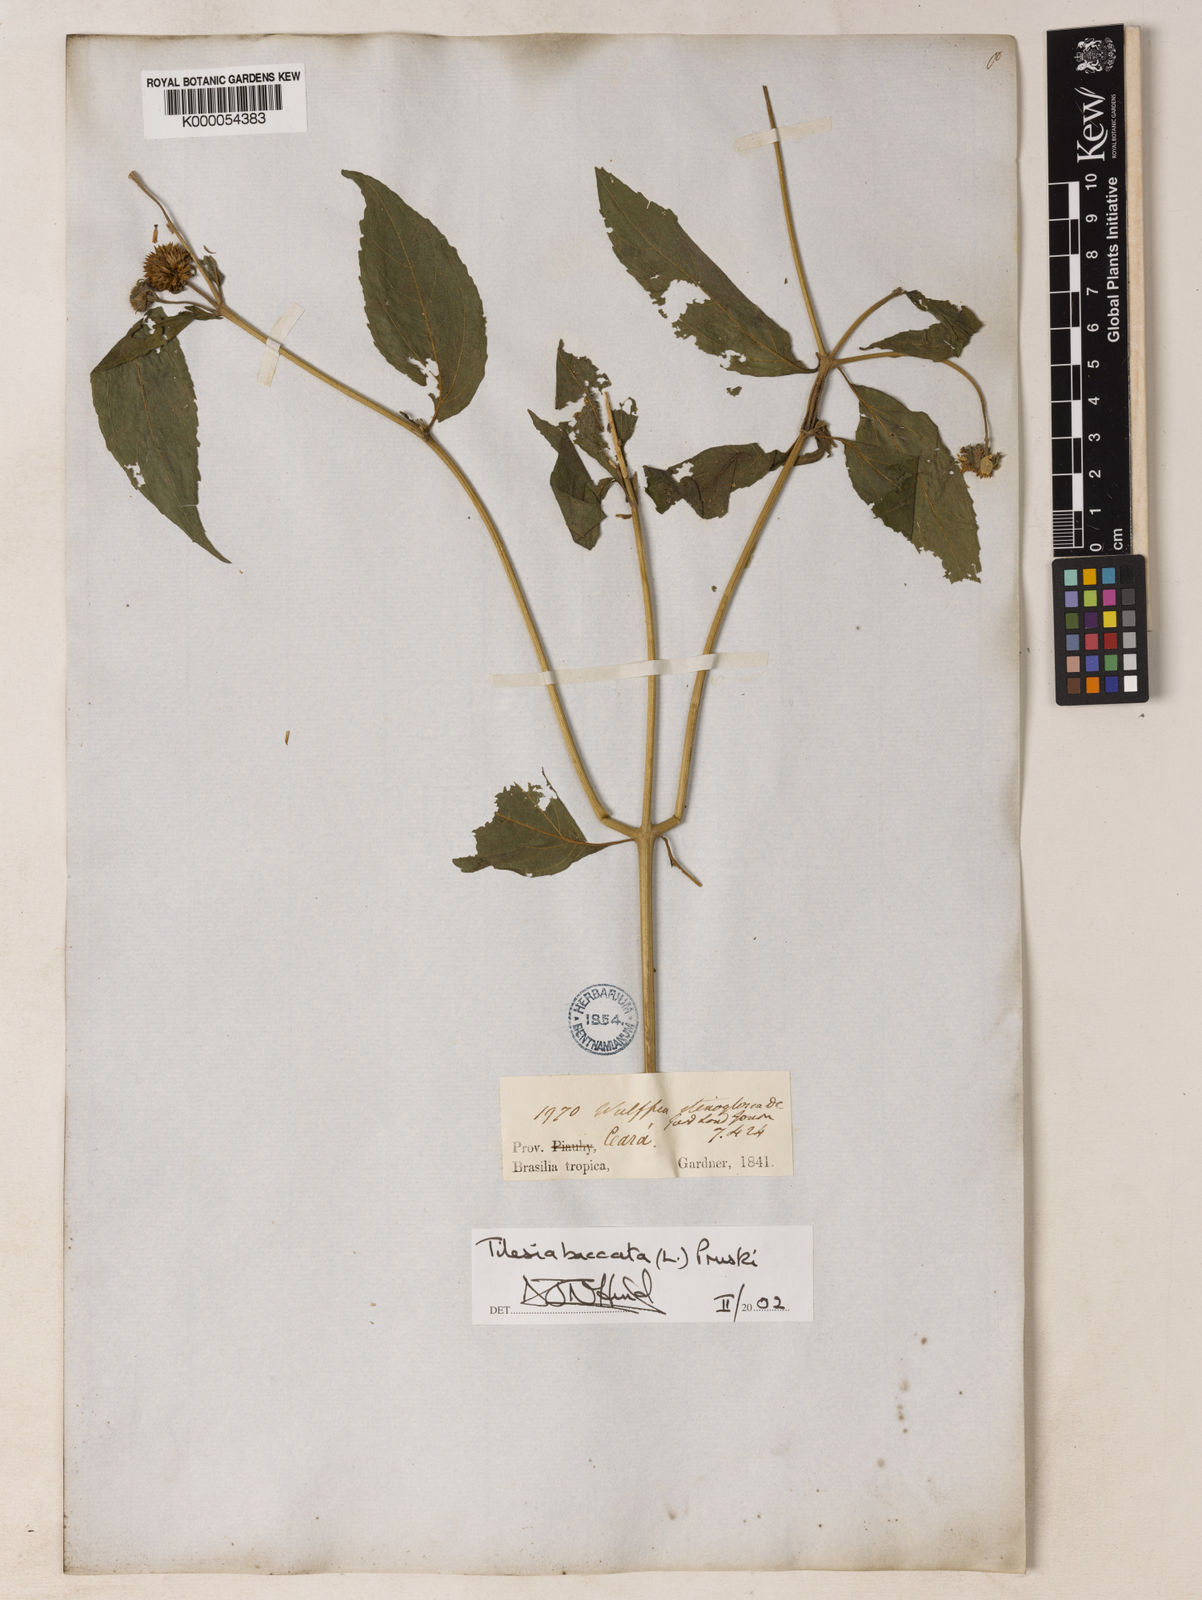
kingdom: Plantae
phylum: Tracheophyta
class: Magnoliopsida
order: Asterales
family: Asteraceae
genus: Tilesia
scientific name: Tilesia baccata
